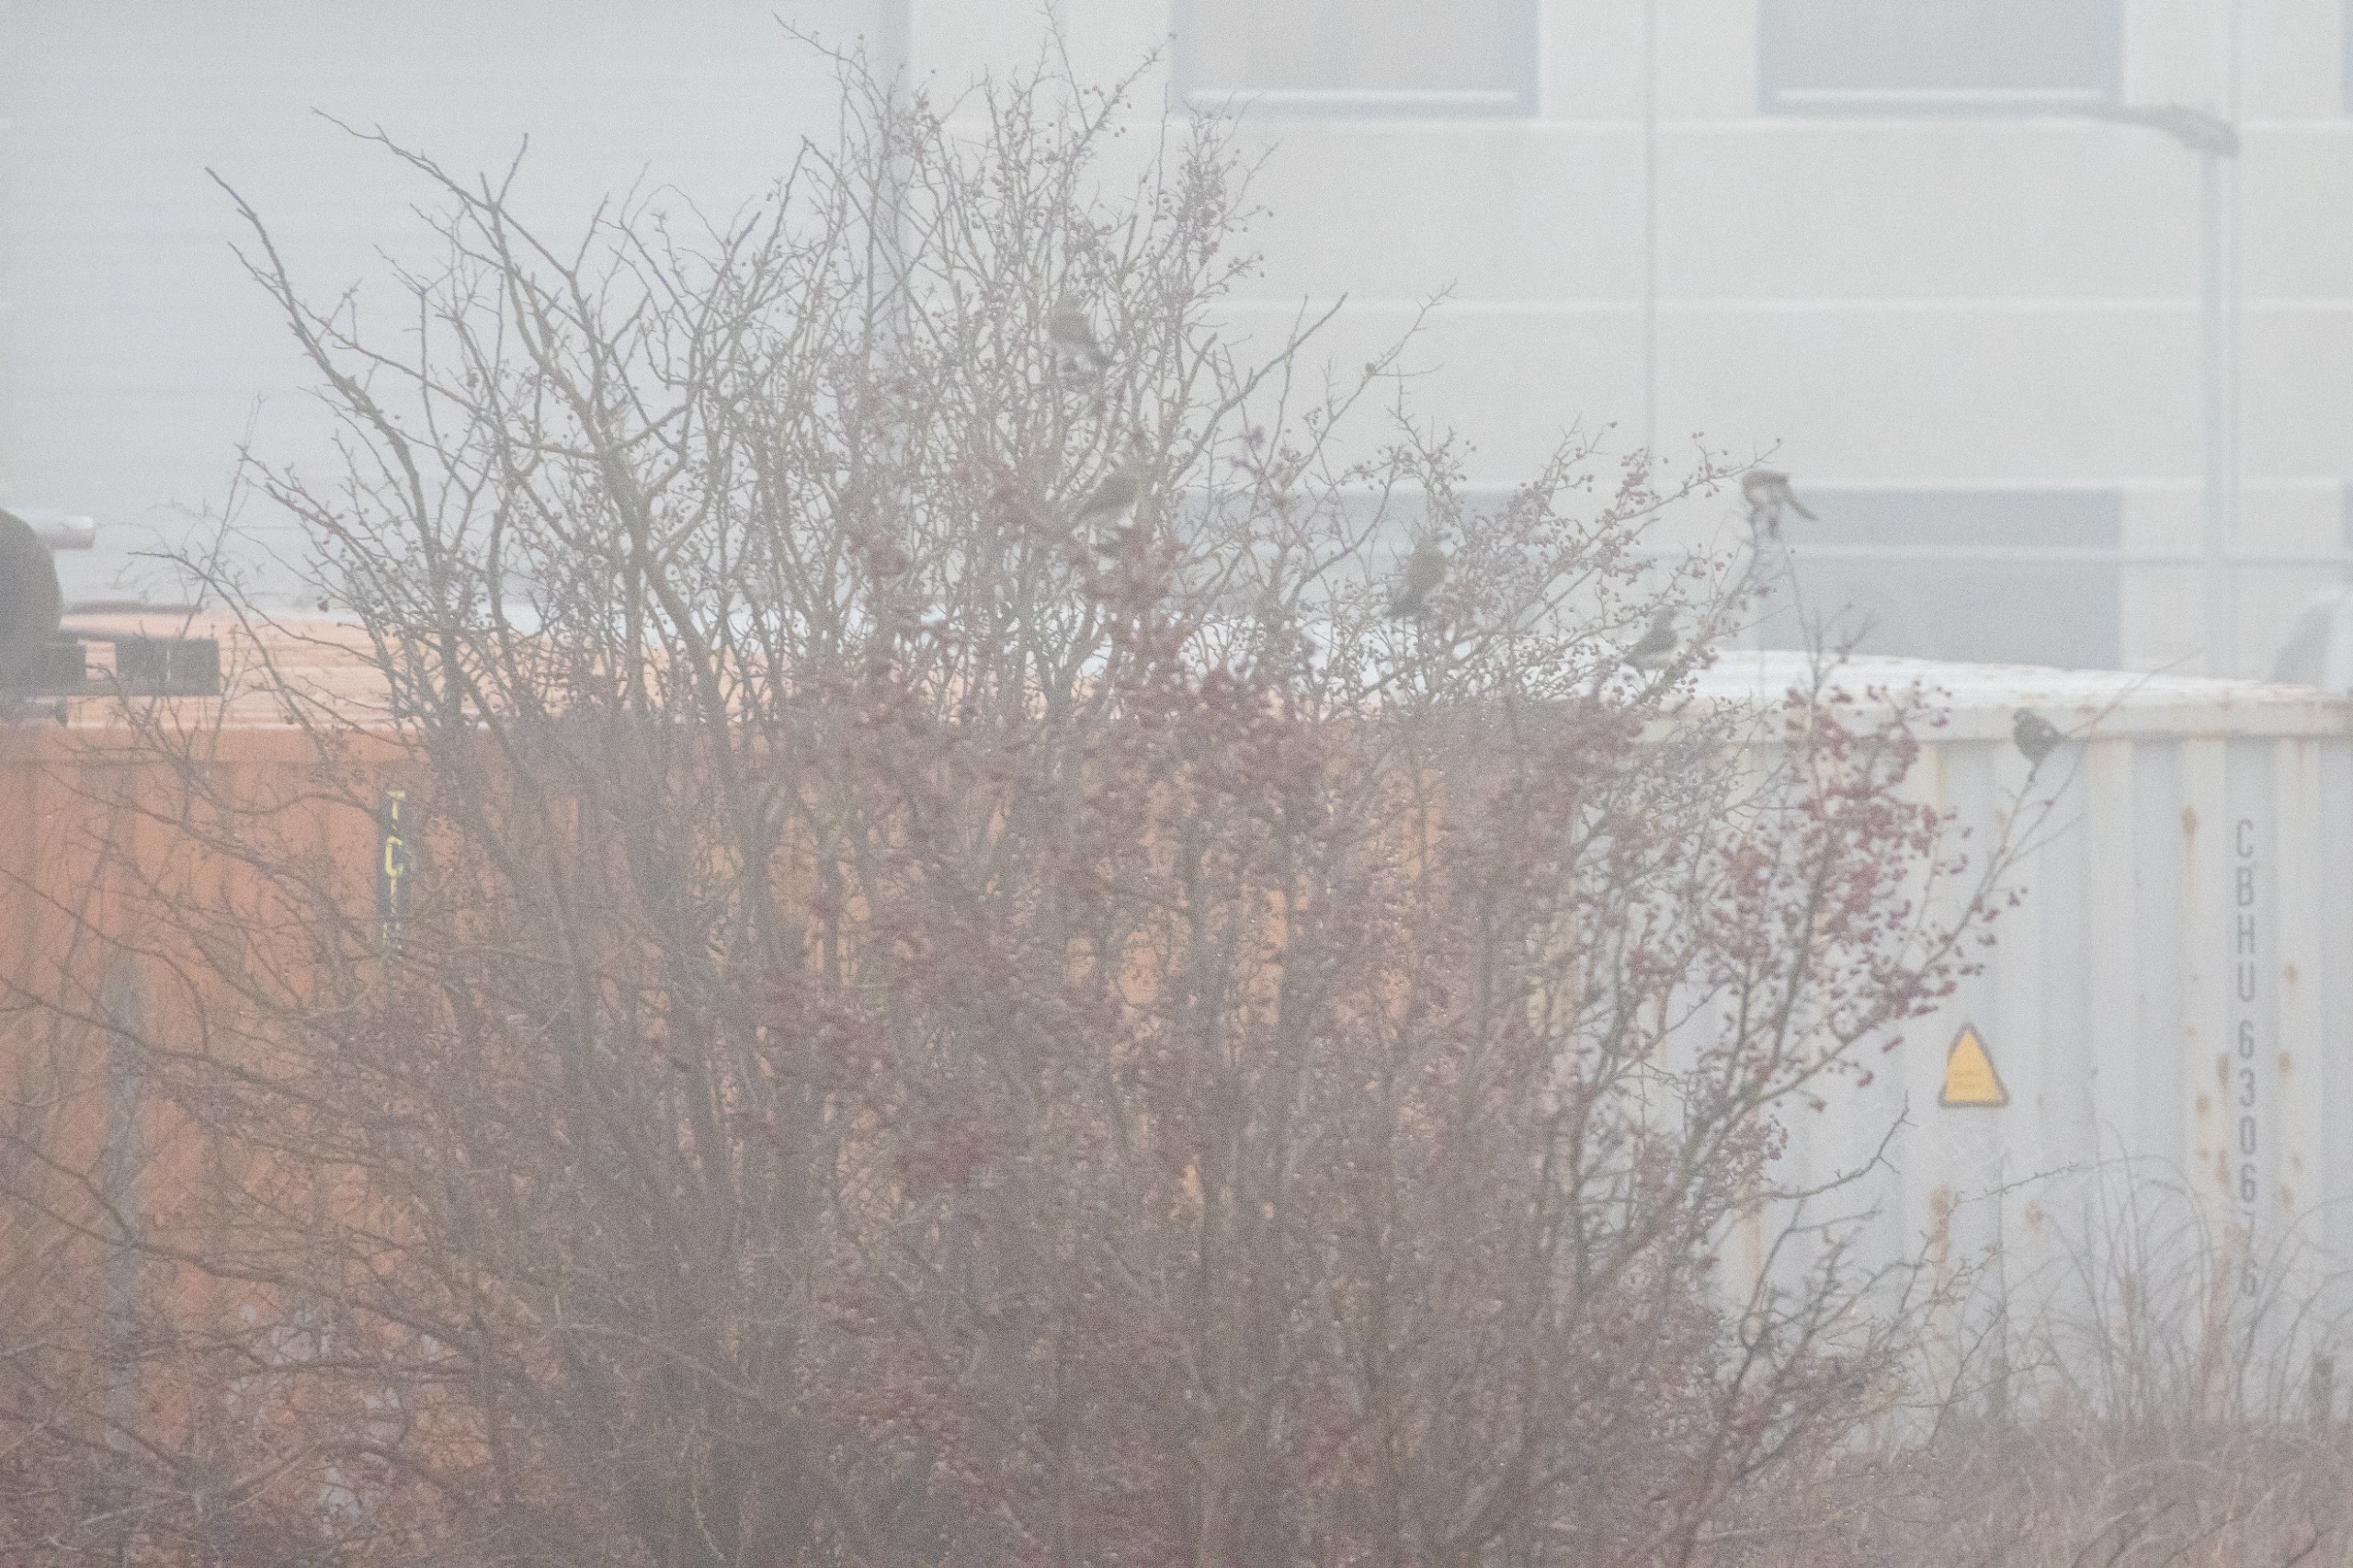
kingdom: Animalia
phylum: Chordata
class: Aves
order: Passeriformes
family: Turdidae
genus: Turdus
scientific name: Turdus pilaris
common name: Sjagger
